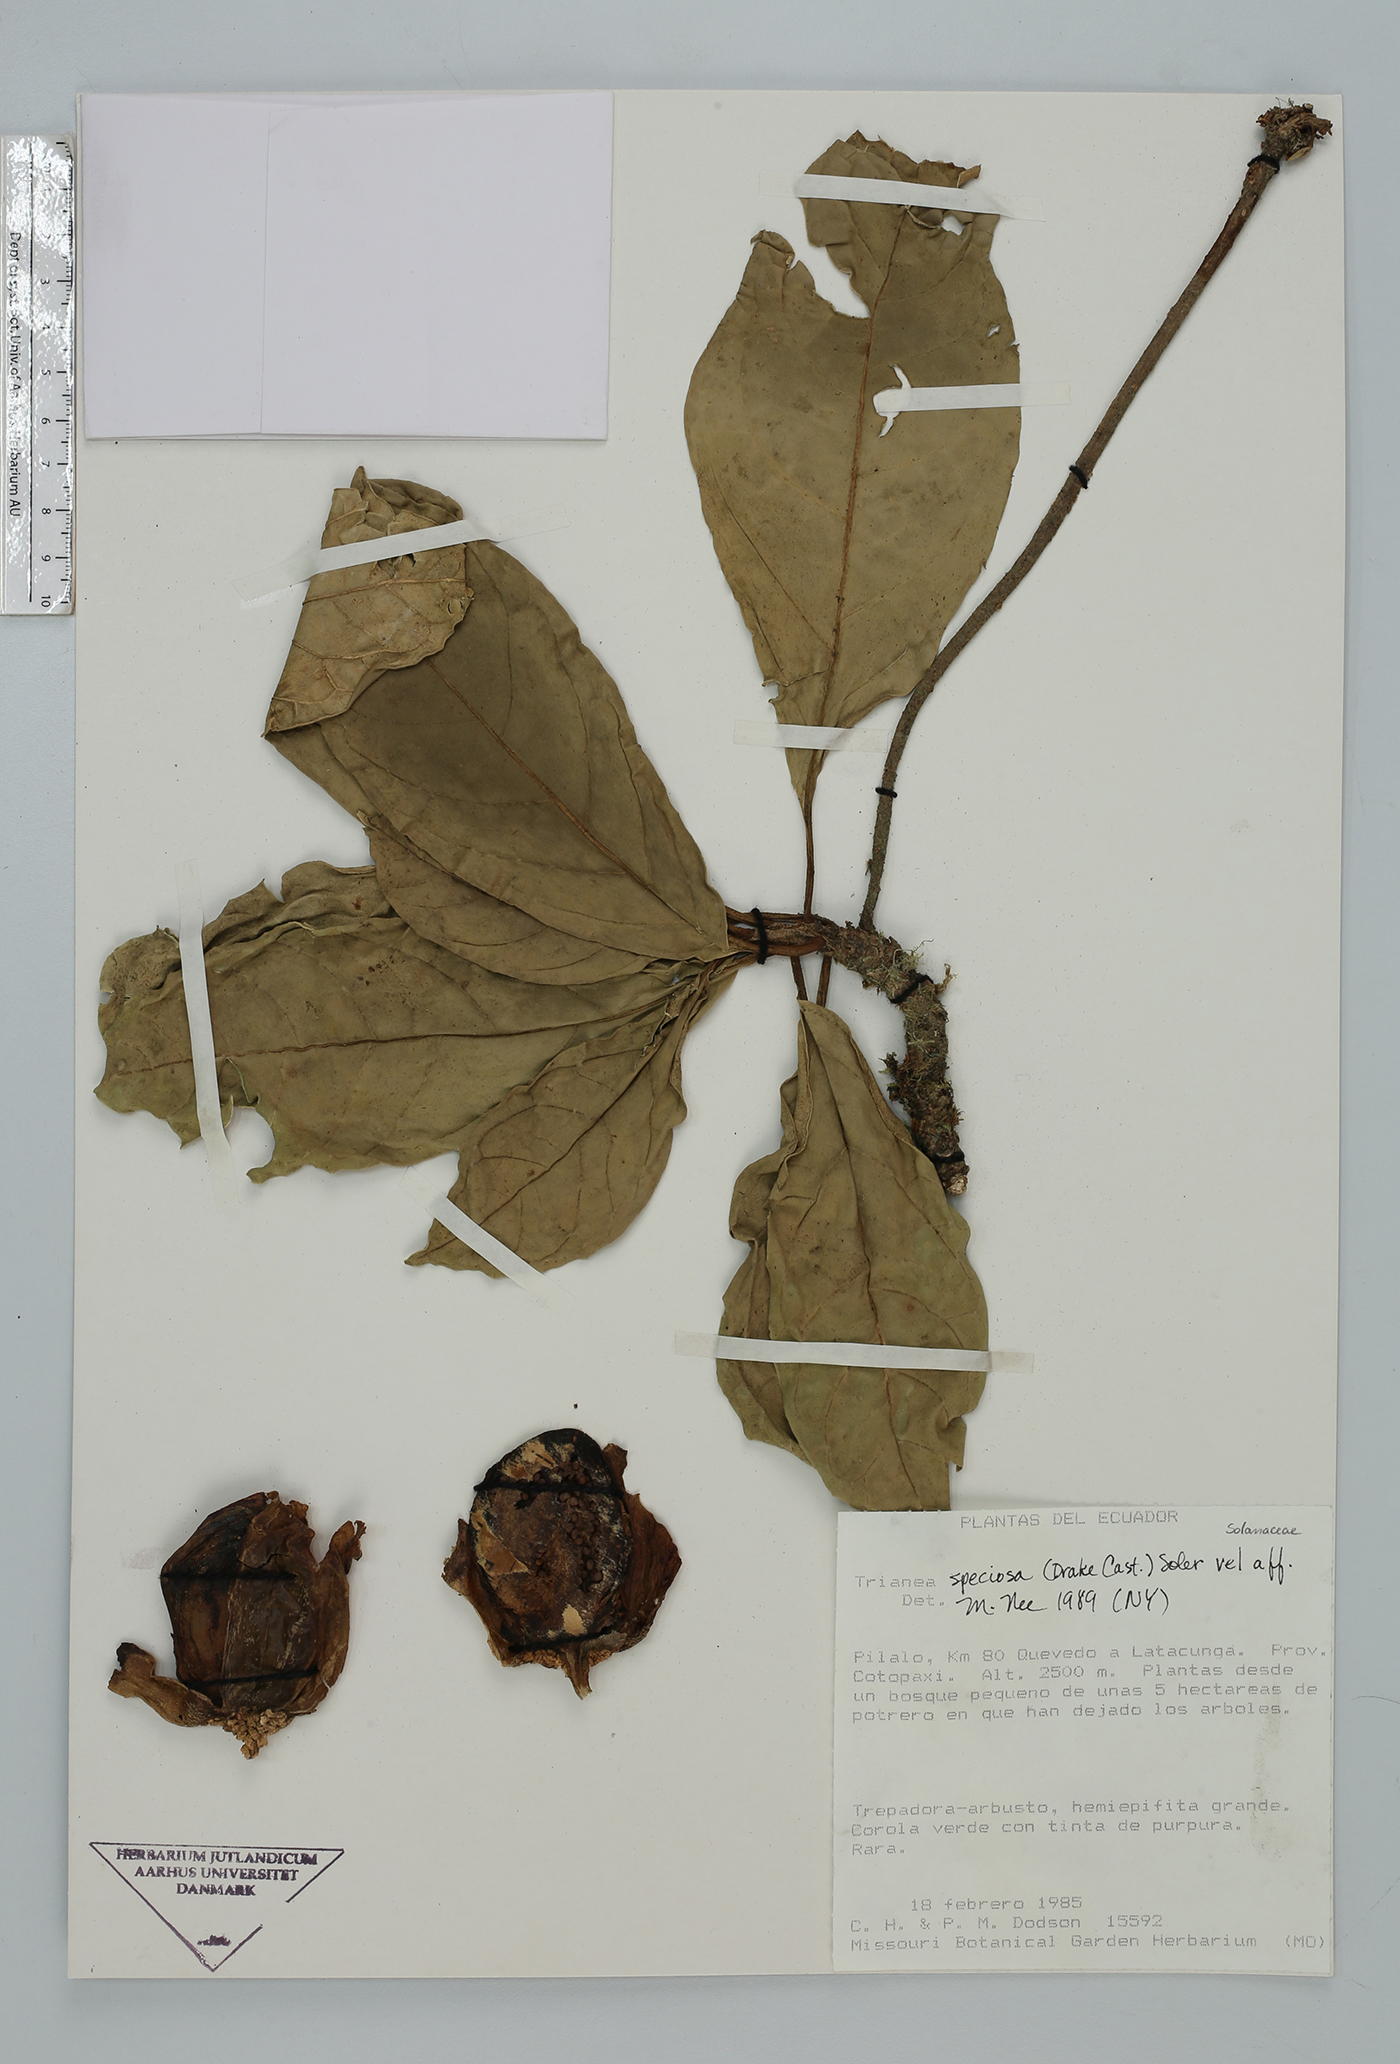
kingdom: Plantae
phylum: Tracheophyta
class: Magnoliopsida
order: Solanales
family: Solanaceae
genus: Trianaea
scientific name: Trianaea
